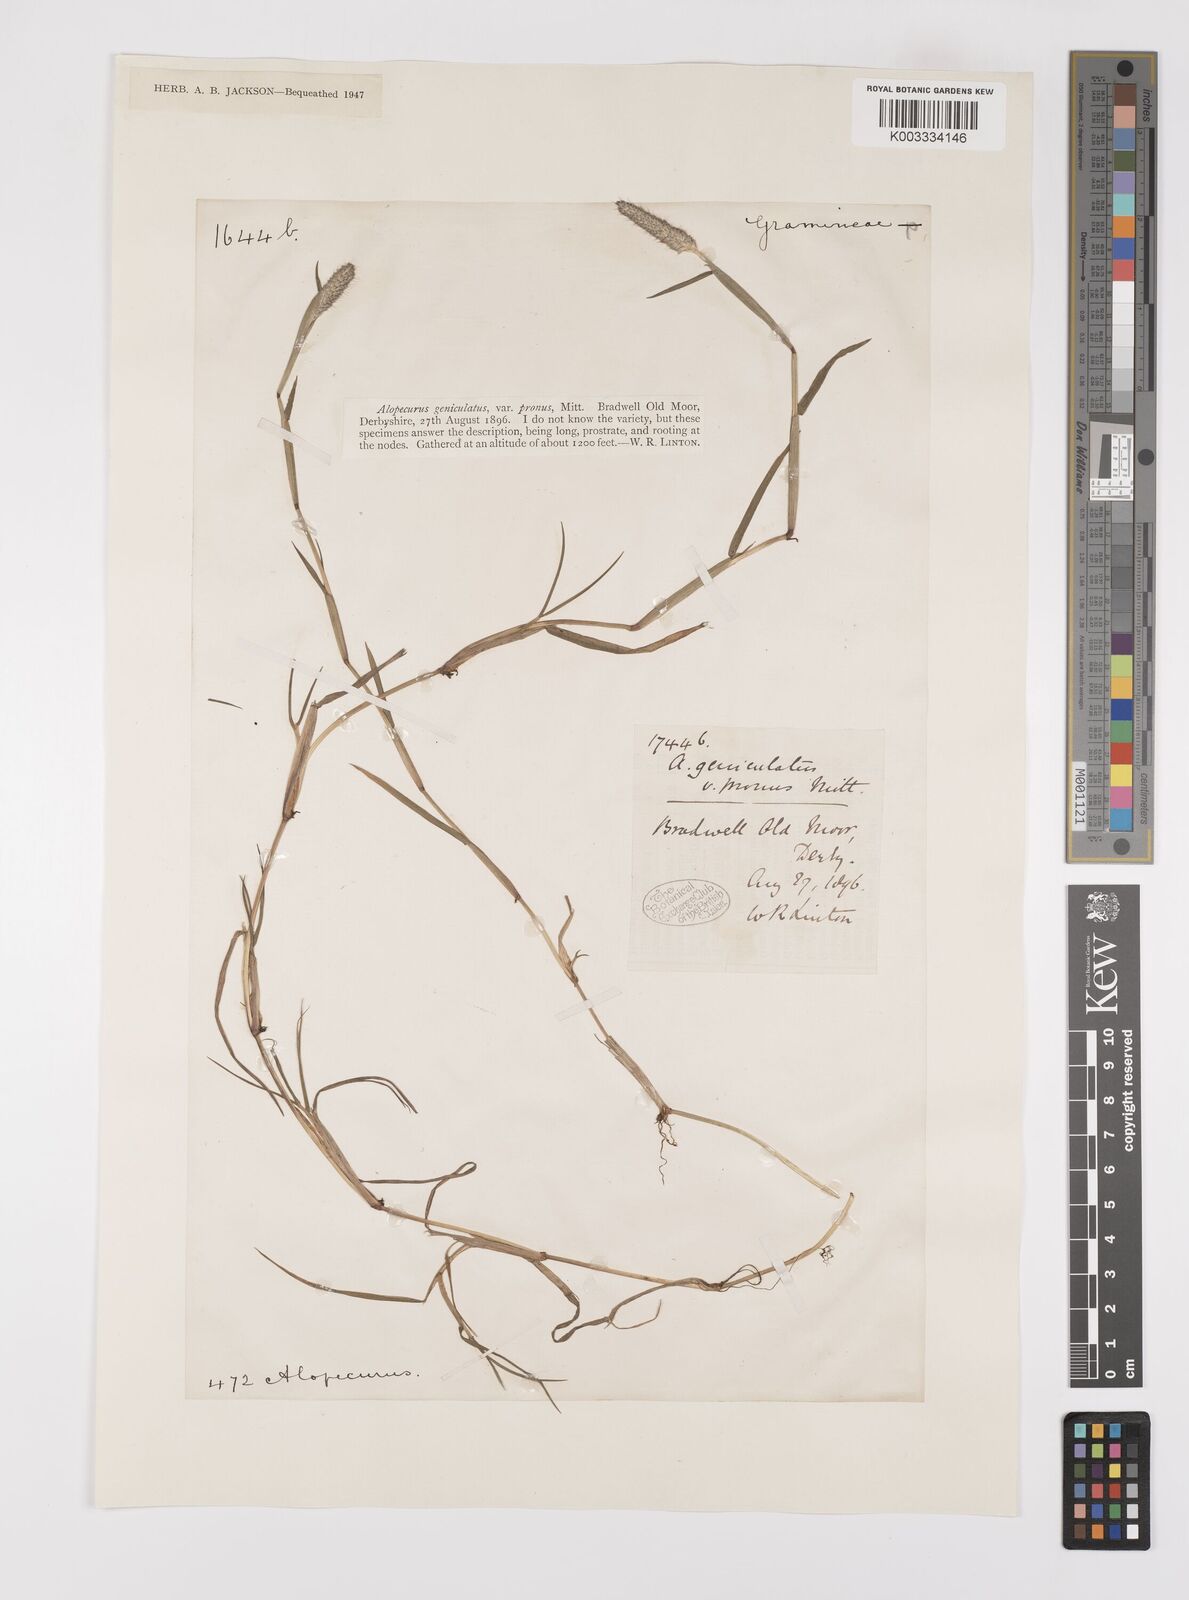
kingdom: Plantae
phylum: Tracheophyta
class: Liliopsida
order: Poales
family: Poaceae
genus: Alopecurus
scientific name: Alopecurus geniculatus
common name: Water foxtail
